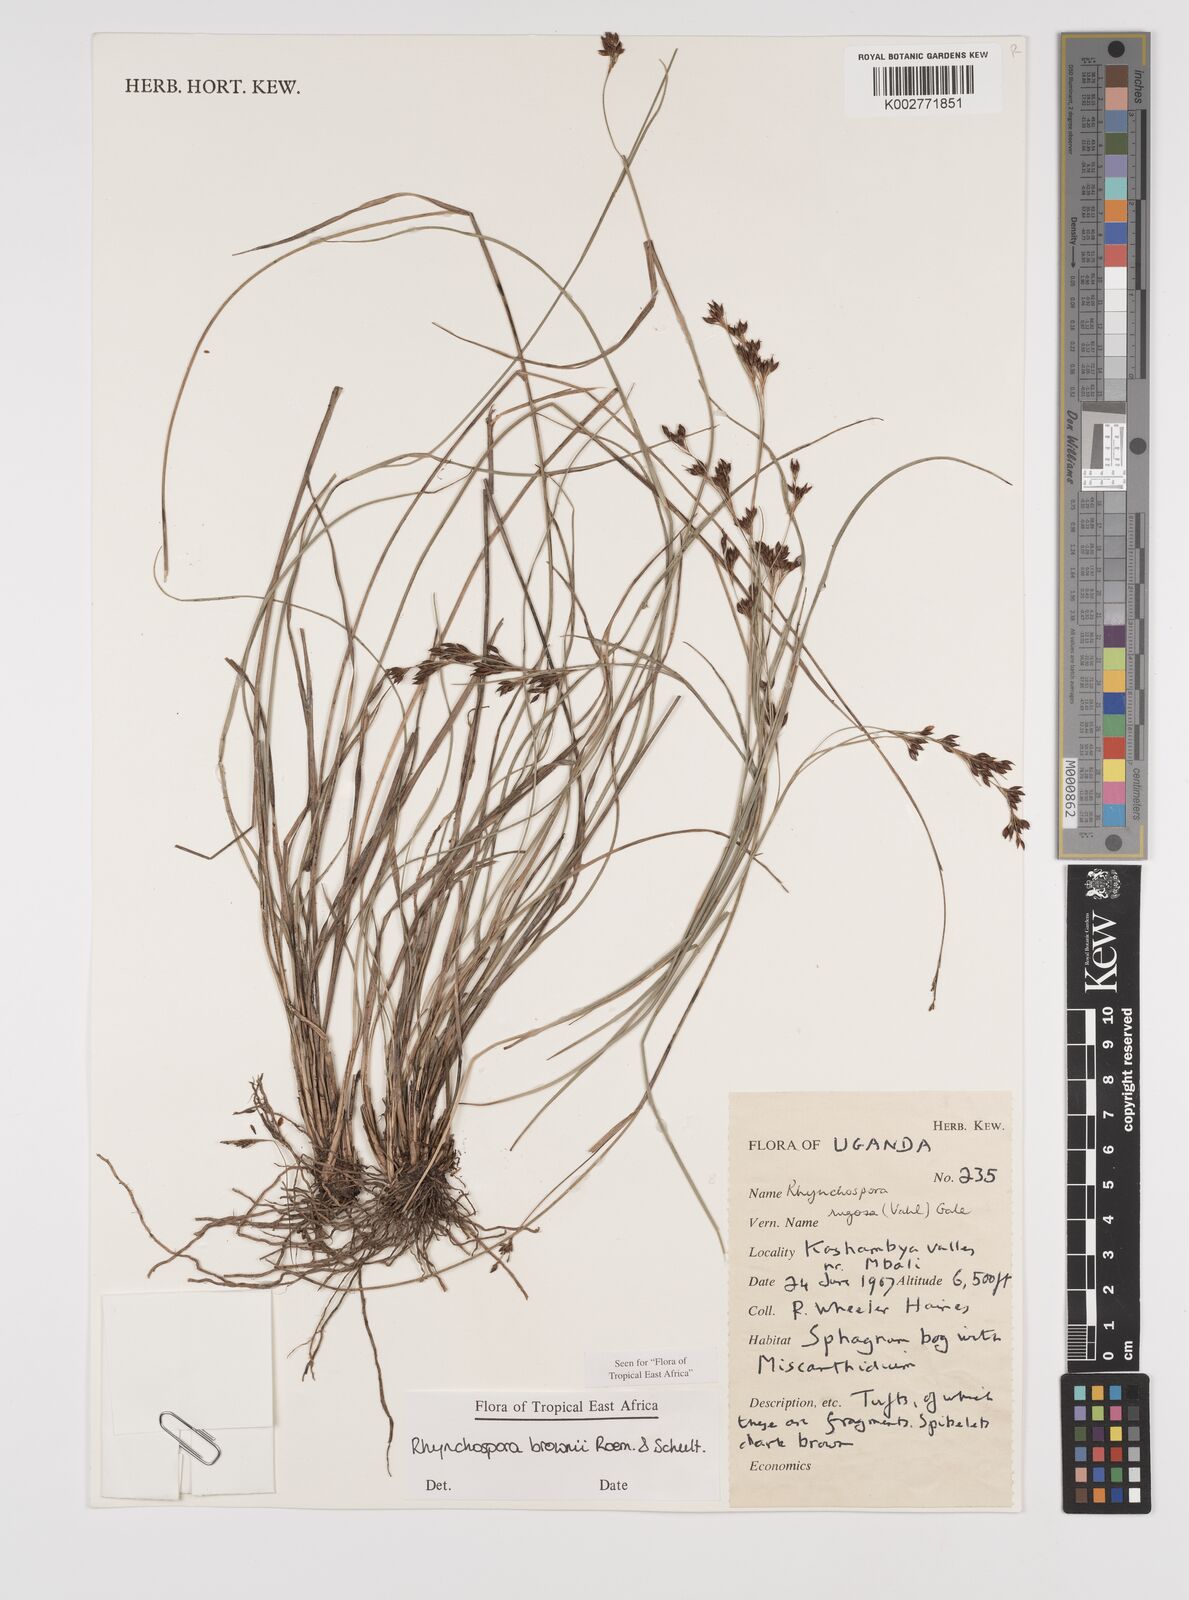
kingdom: Plantae
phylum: Tracheophyta
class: Liliopsida
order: Poales
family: Cyperaceae
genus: Rhynchospora
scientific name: Rhynchospora brownii
